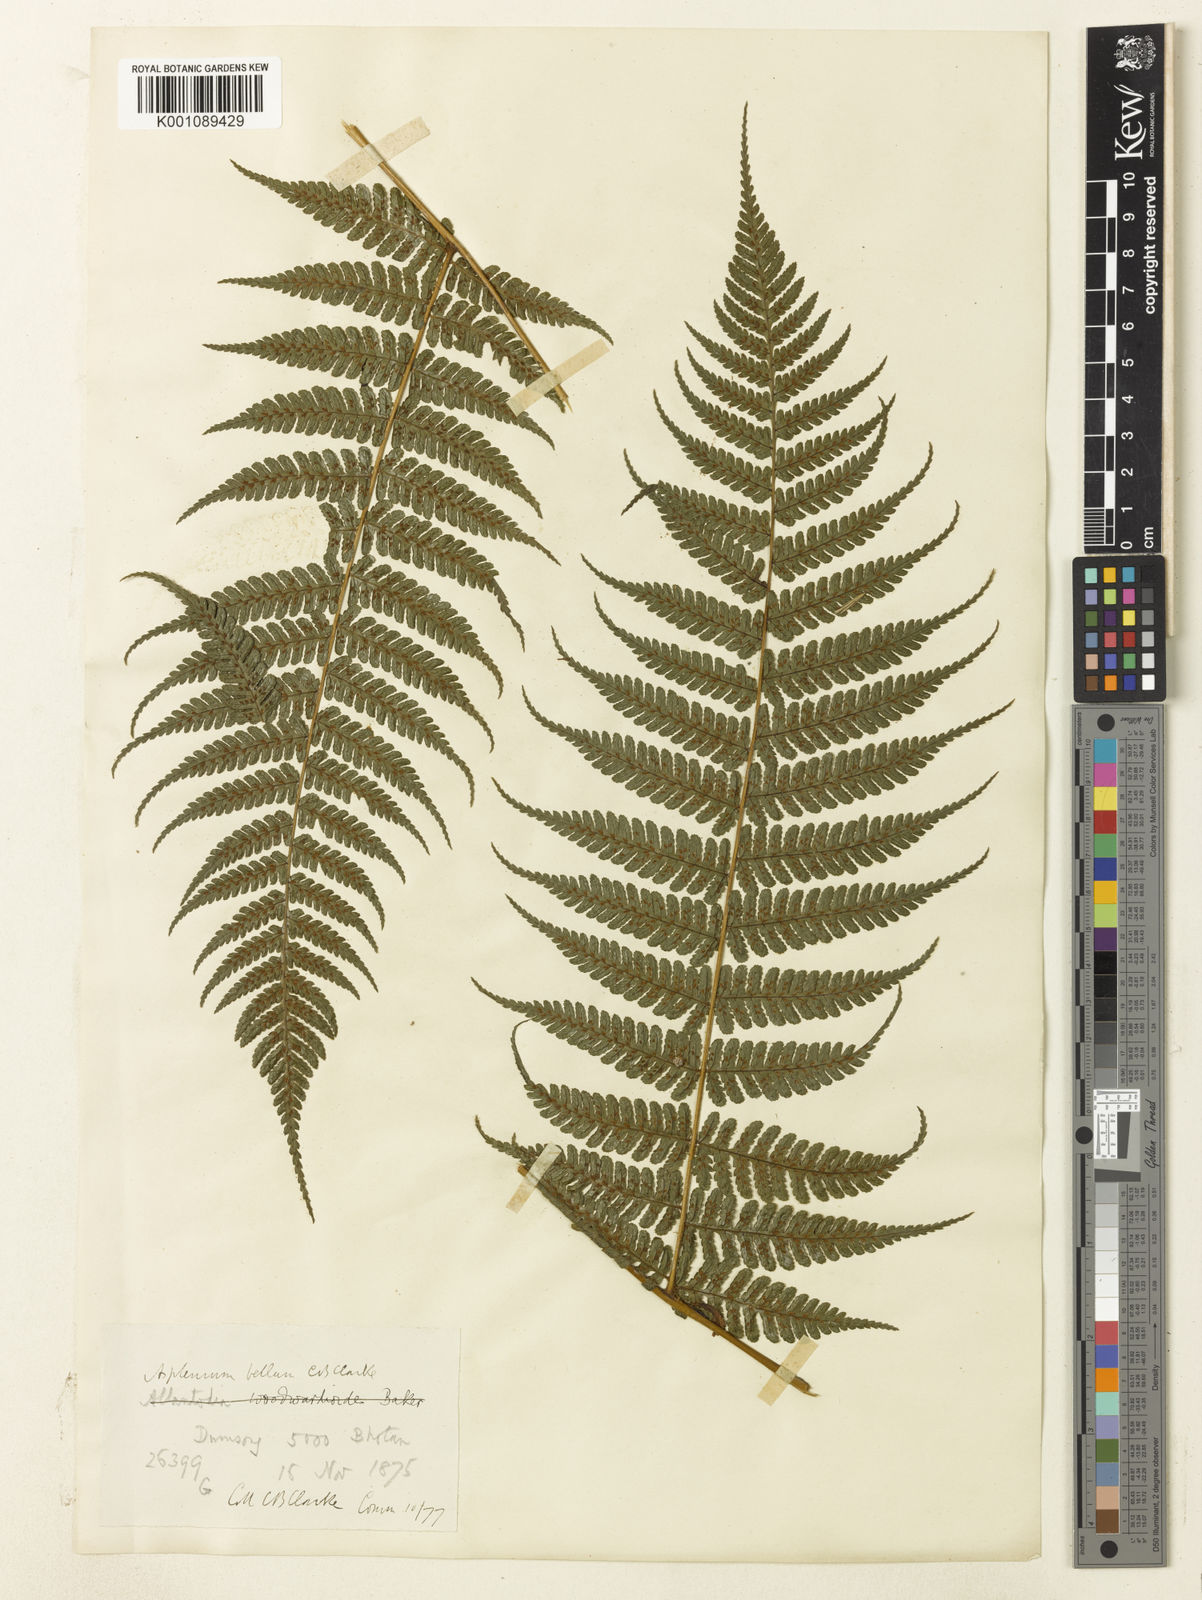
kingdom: Plantae
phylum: Tracheophyta
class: Polypodiopsida
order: Polypodiales
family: Athyriaceae
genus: Diplazium
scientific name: Diplazium bellum
